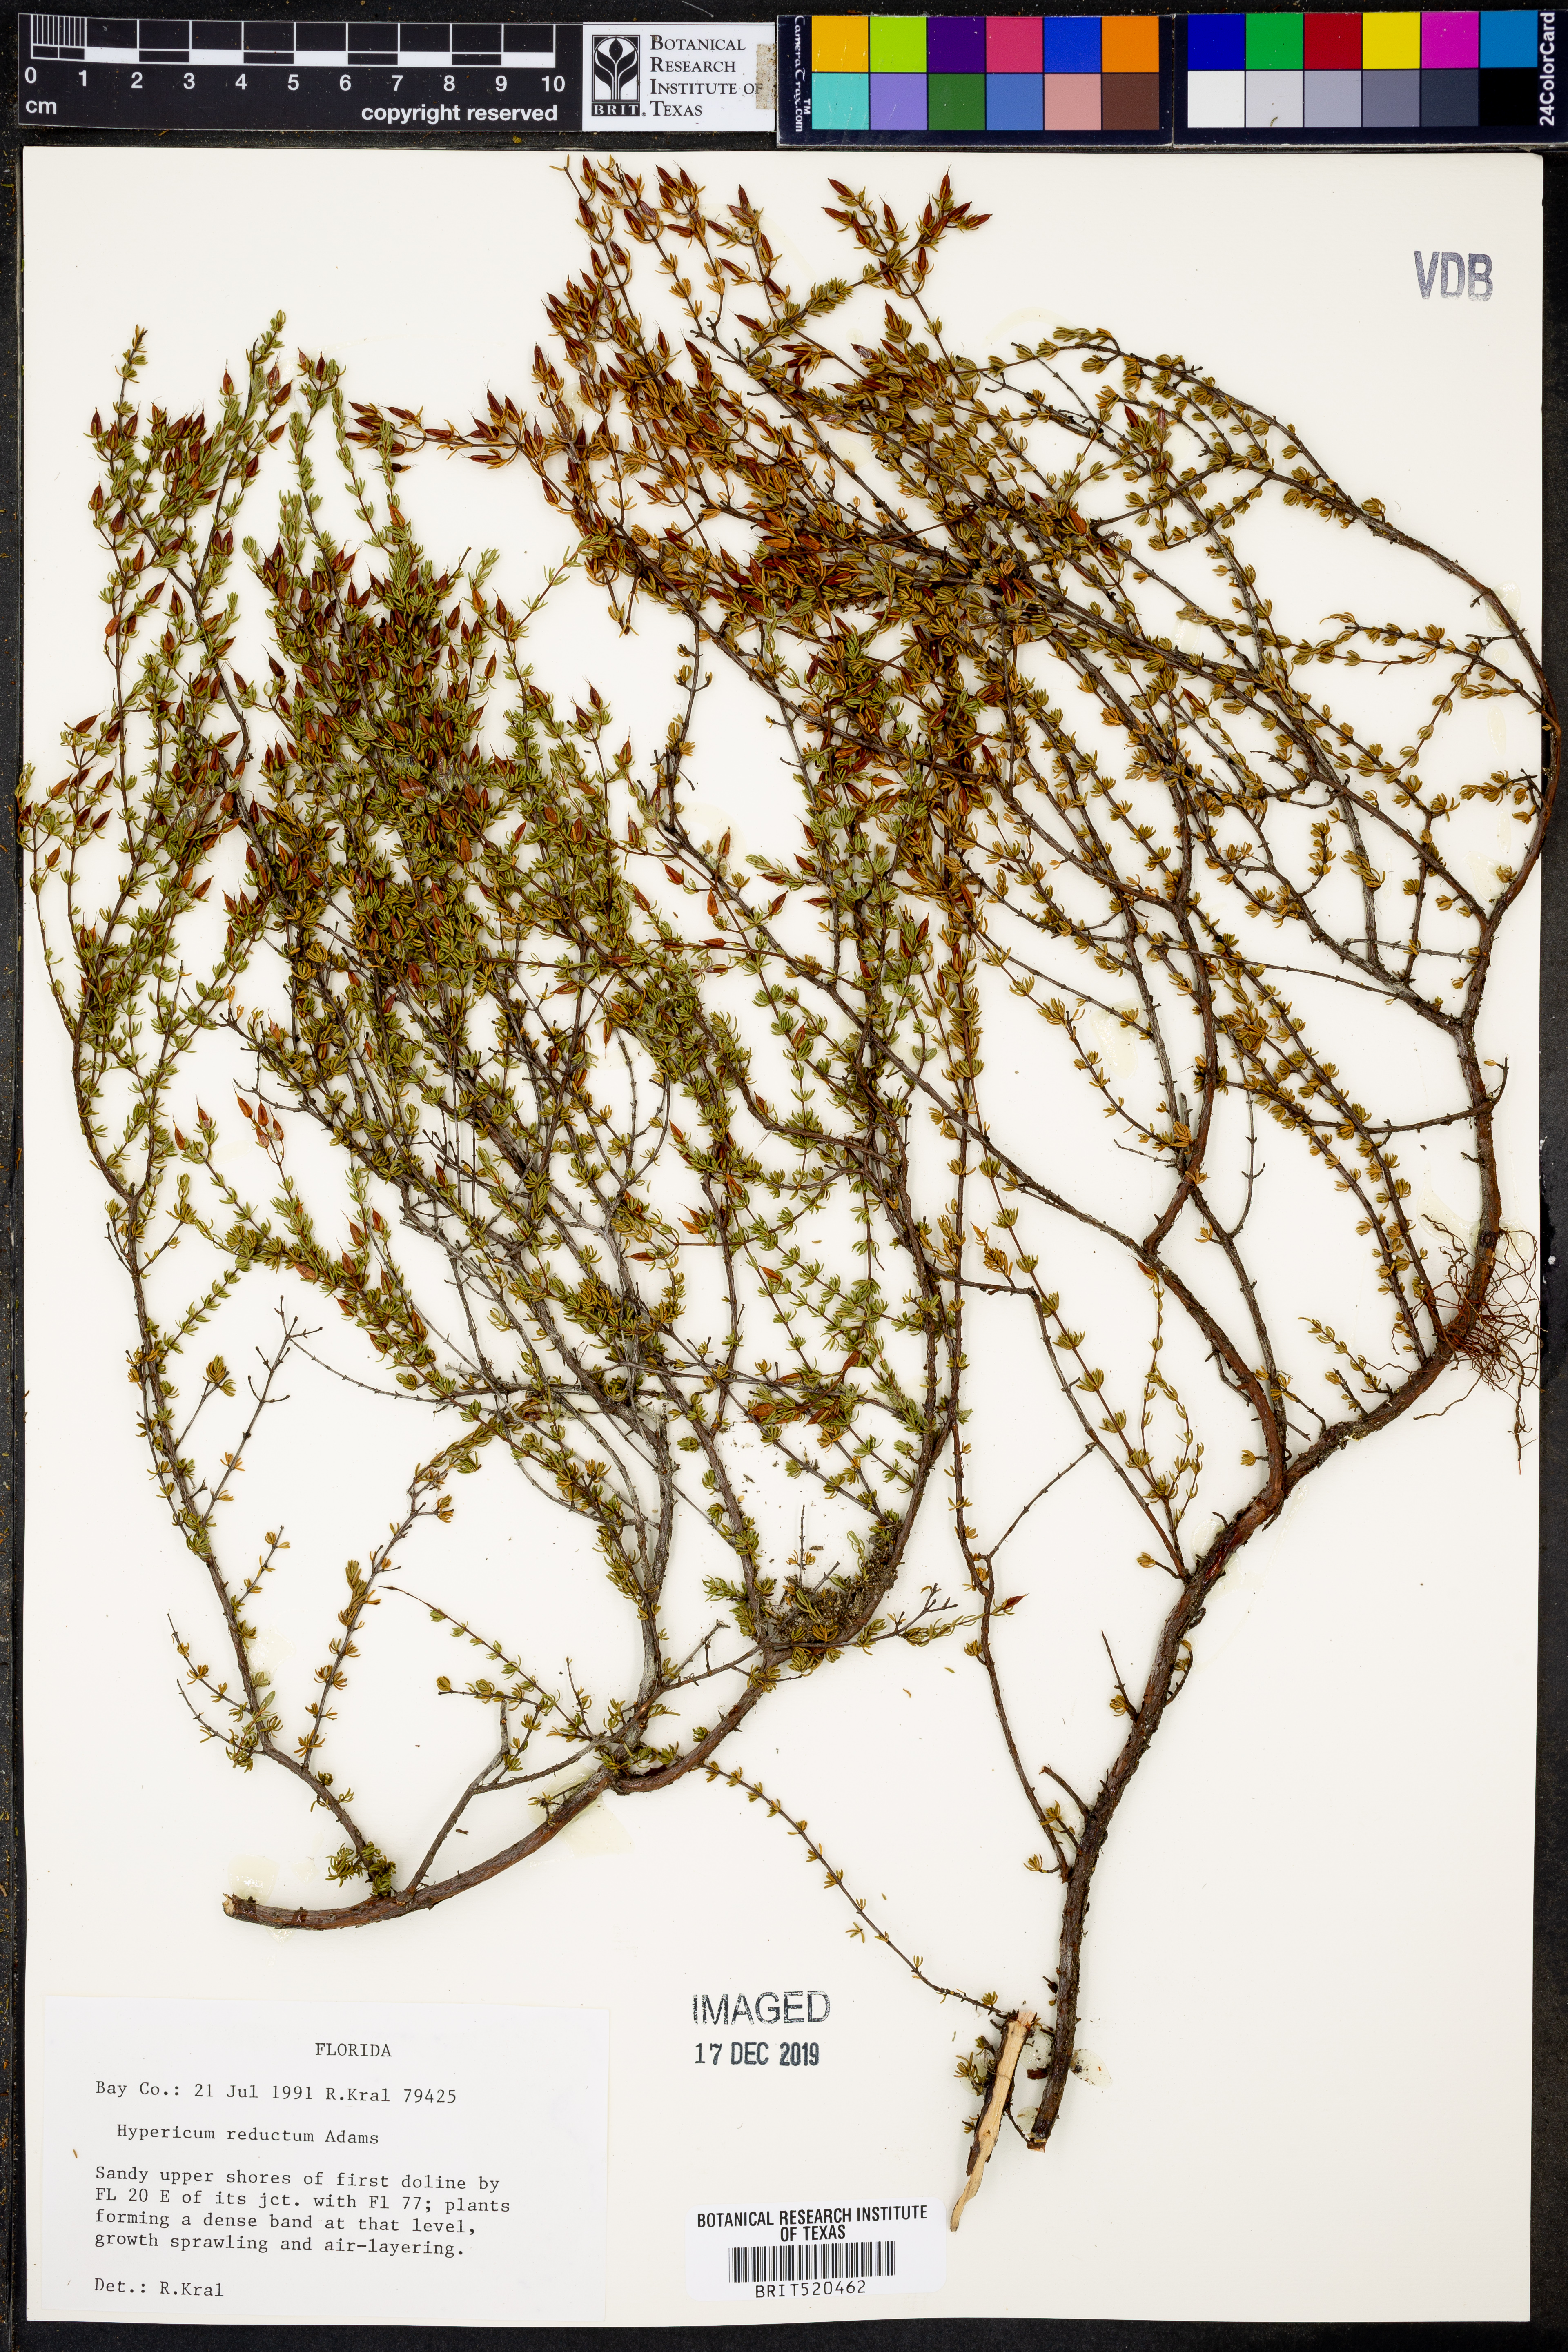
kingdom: Plantae
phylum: Tracheophyta
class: Magnoliopsida
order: Malpighiales
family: Hypericaceae
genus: Hypericum
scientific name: Hypericum tenuifolium
